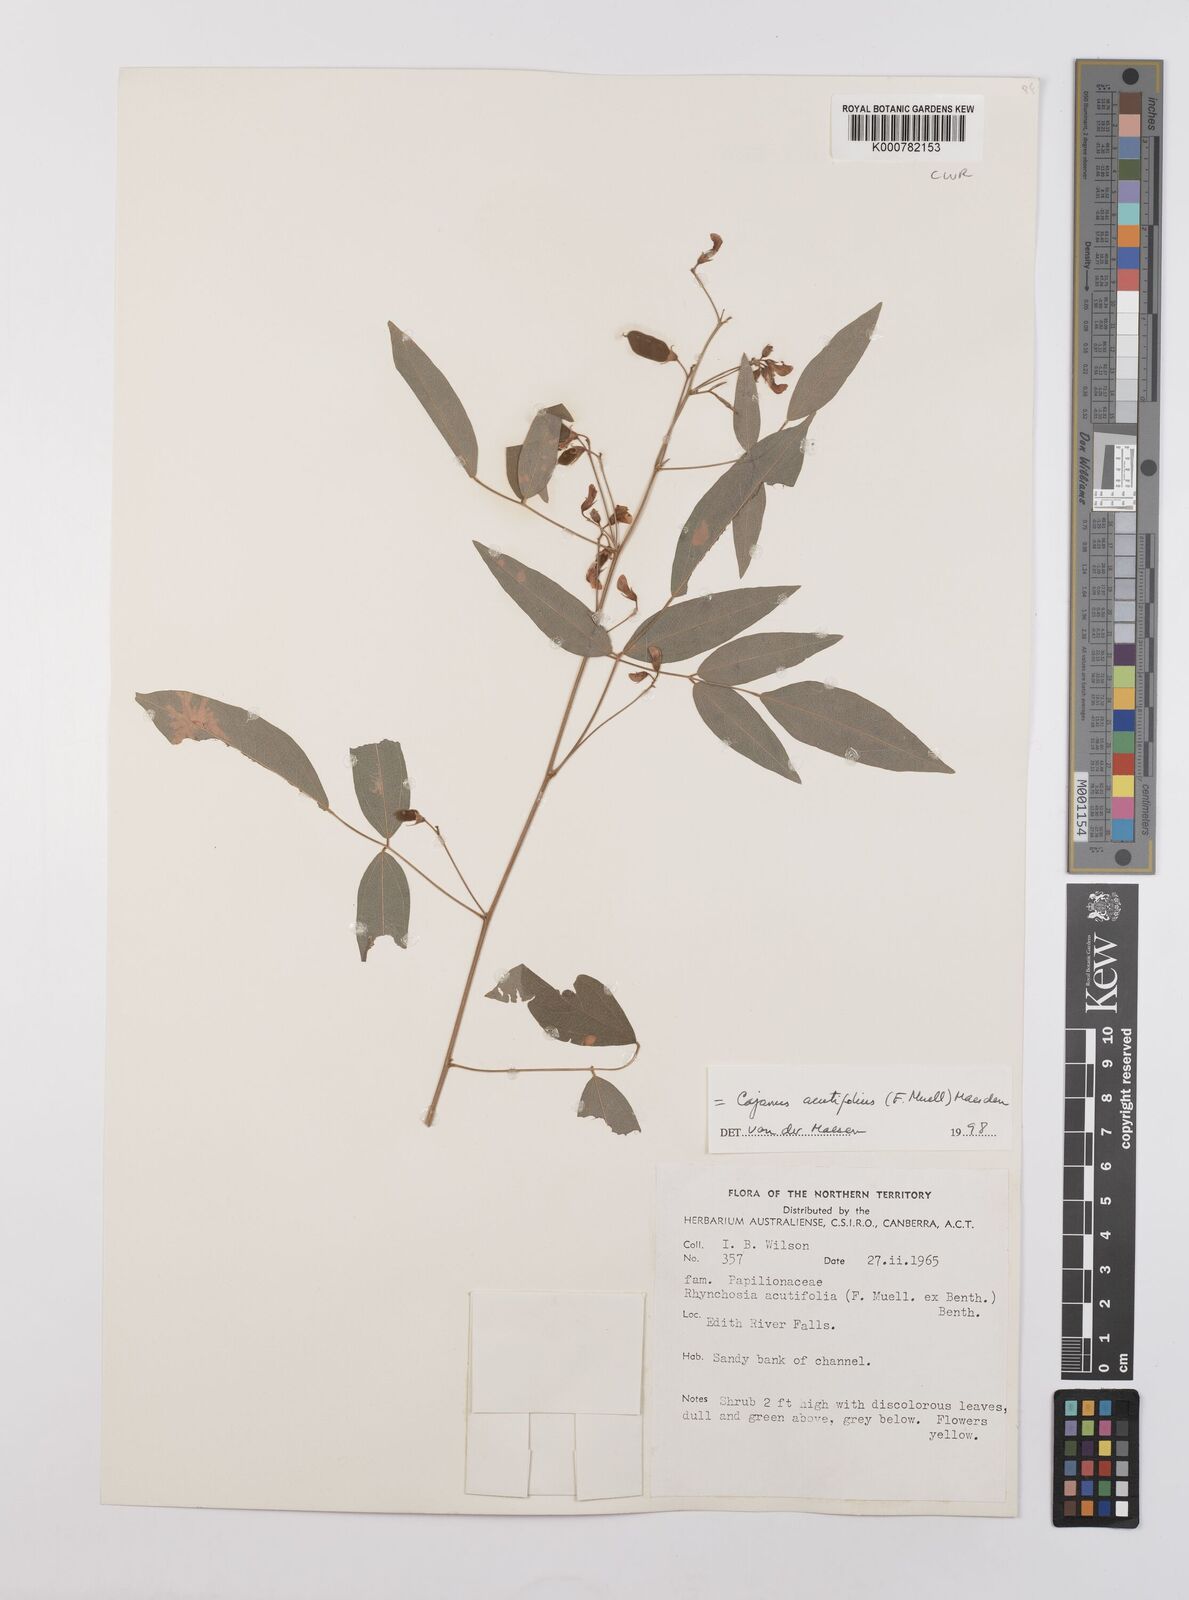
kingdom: Plantae
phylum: Tracheophyta
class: Magnoliopsida
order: Fabales
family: Fabaceae
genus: Cajanus
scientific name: Cajanus acutifolius
